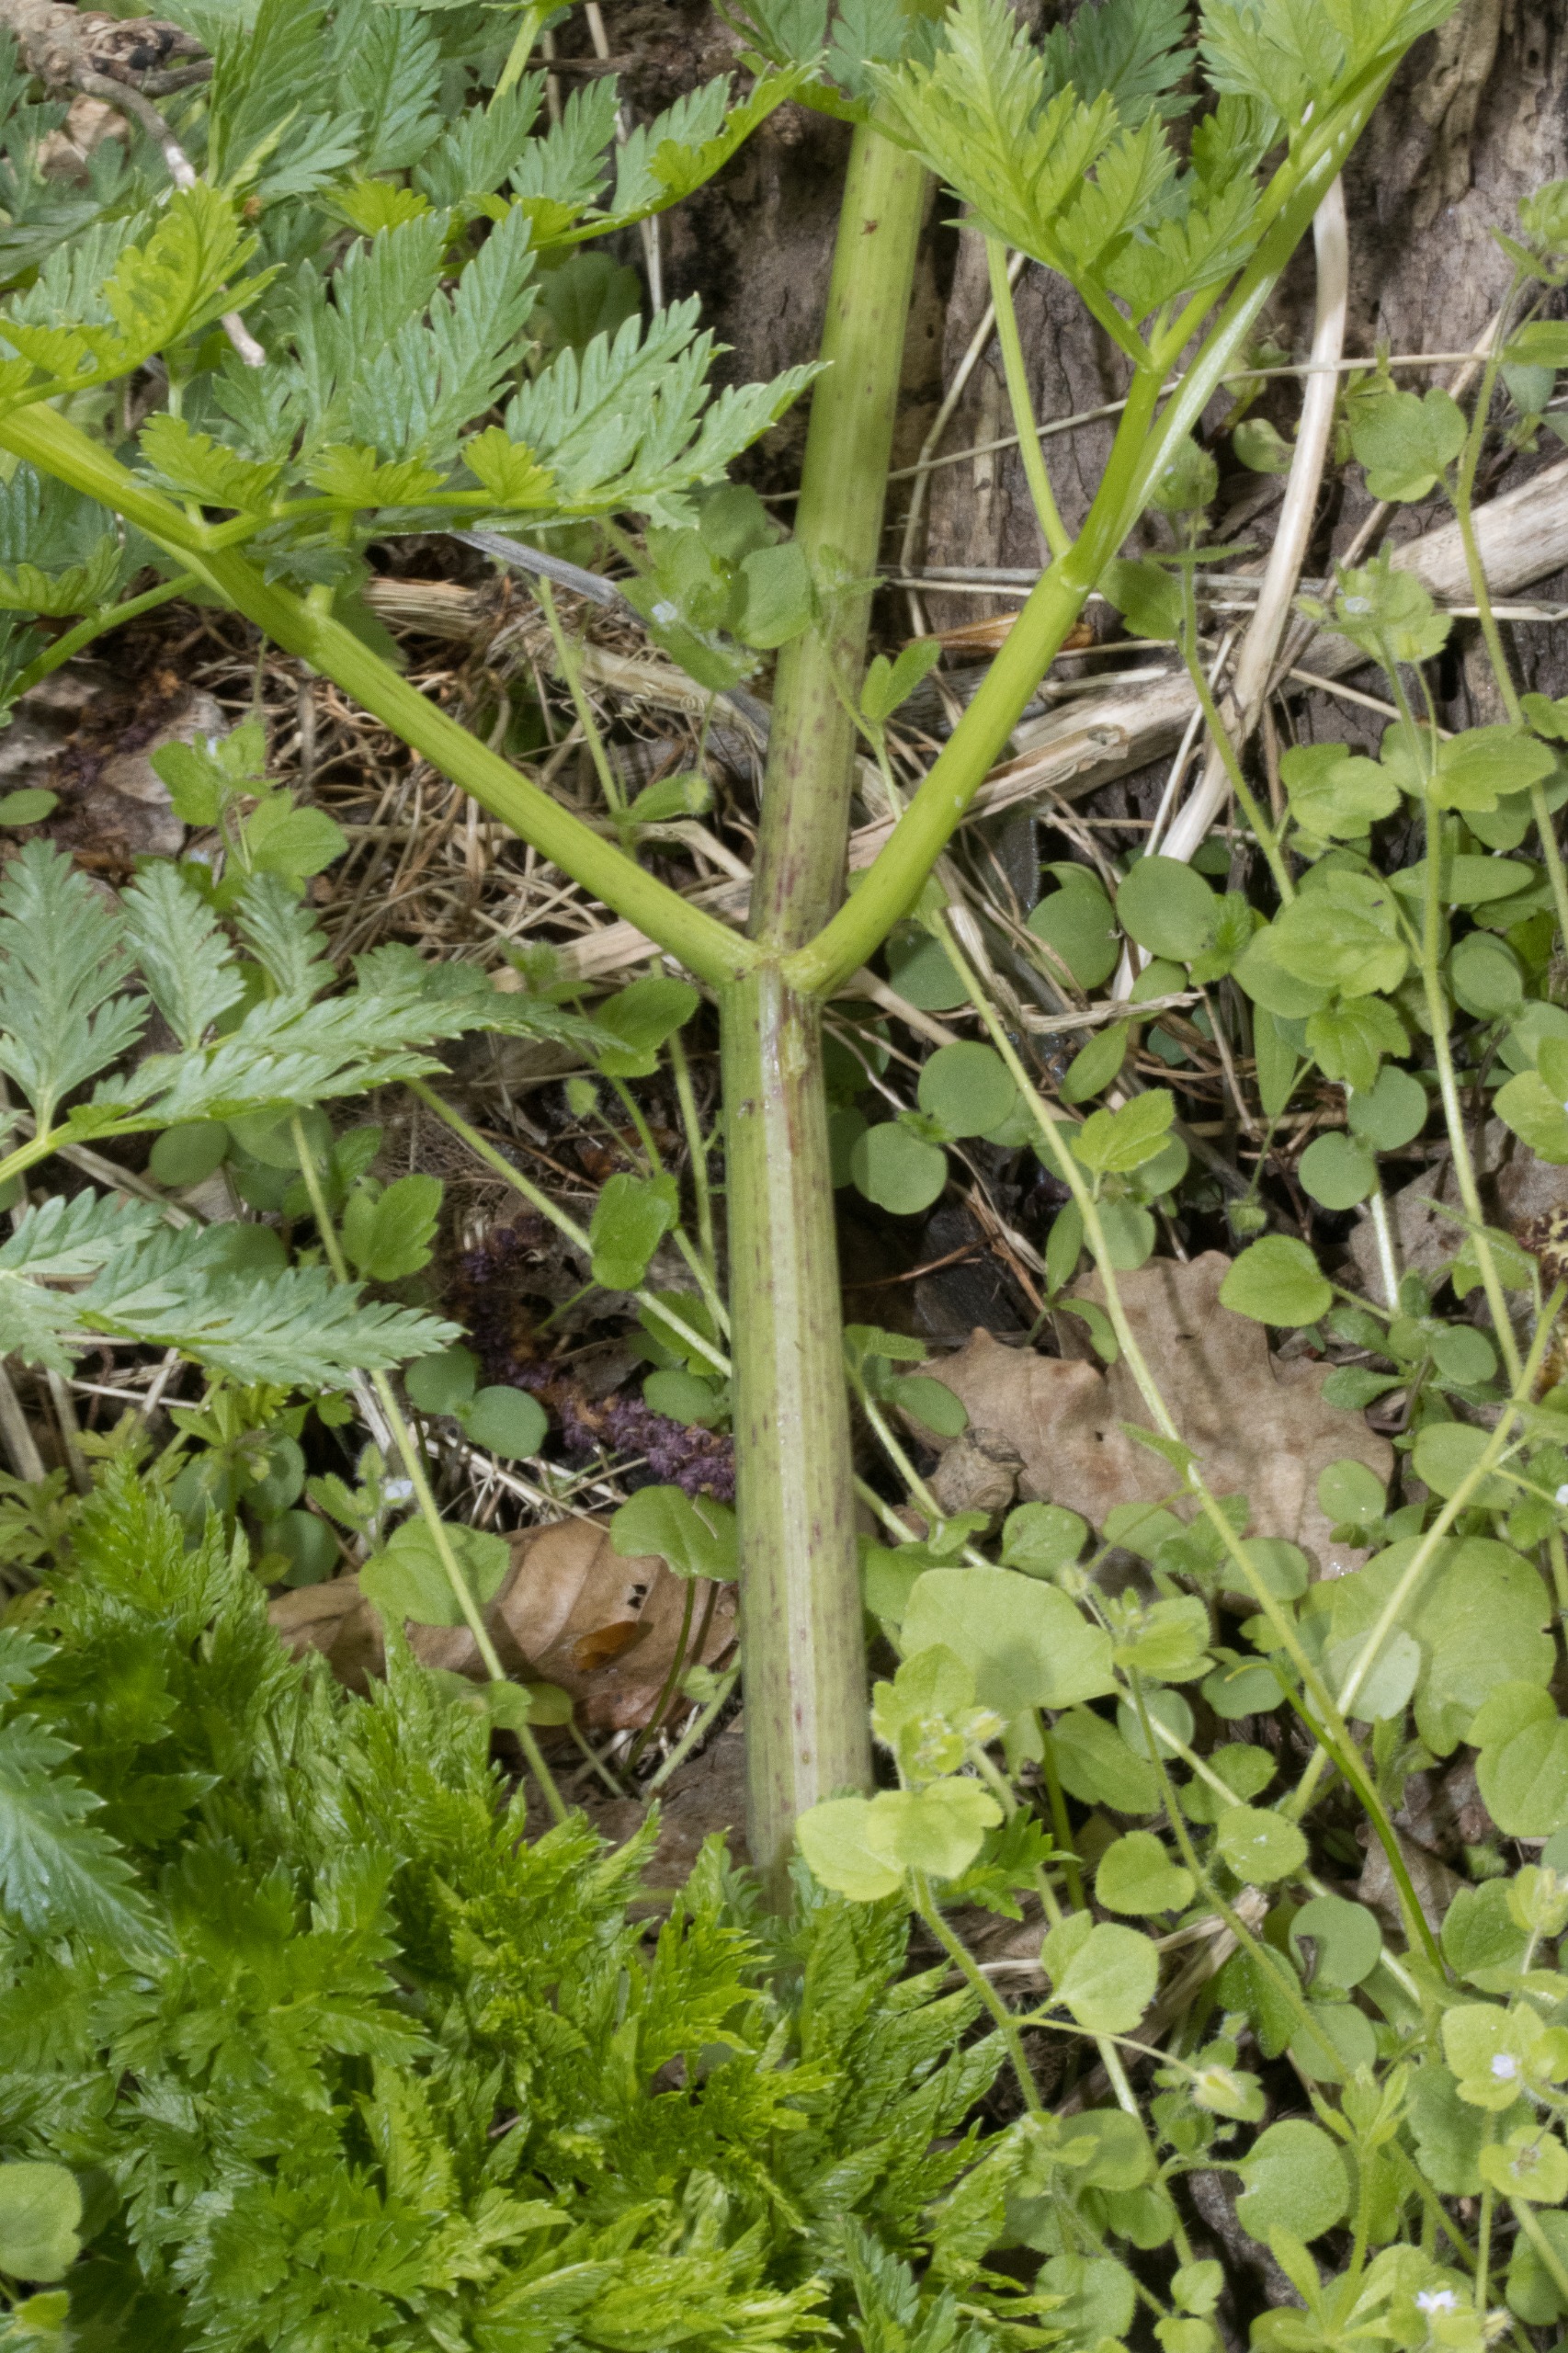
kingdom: Plantae
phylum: Tracheophyta
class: Magnoliopsida
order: Apiales
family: Apiaceae
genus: Conium
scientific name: Conium maculatum
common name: Skarntyde
